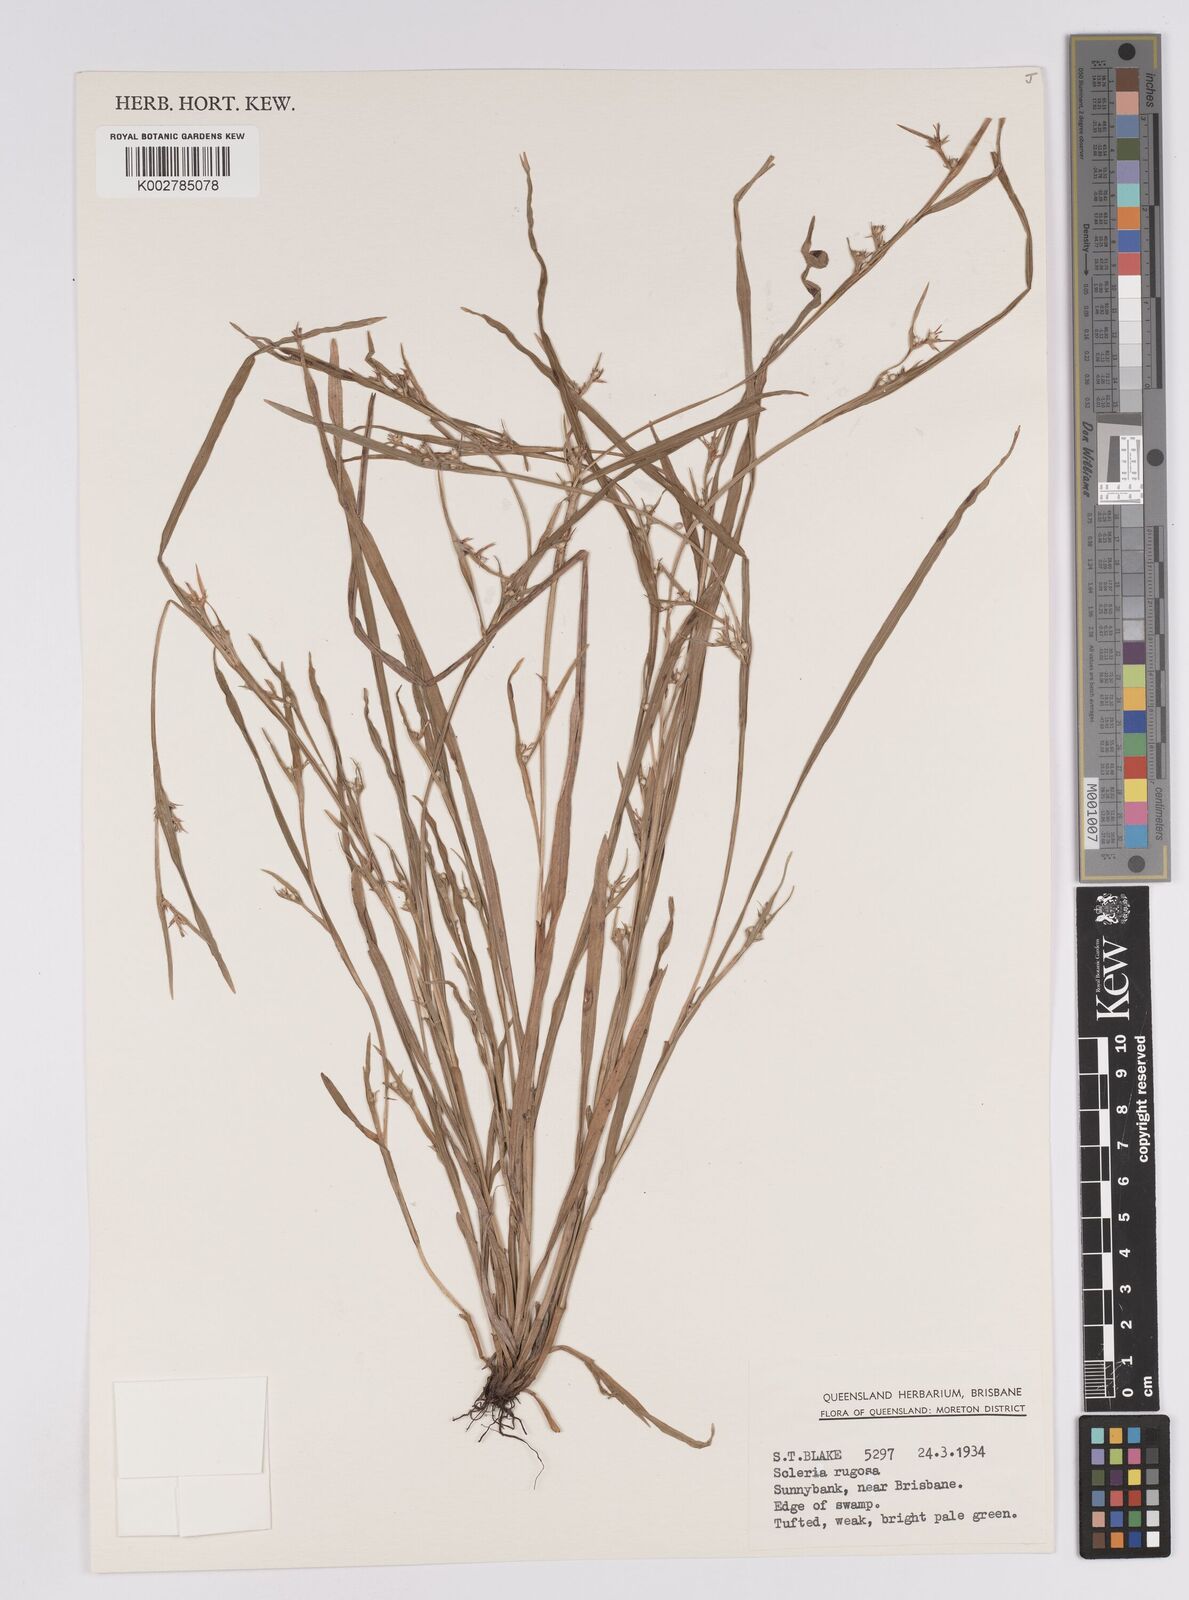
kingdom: Plantae
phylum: Tracheophyta
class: Liliopsida
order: Poales
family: Cyperaceae
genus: Scleria
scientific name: Scleria rugosa
